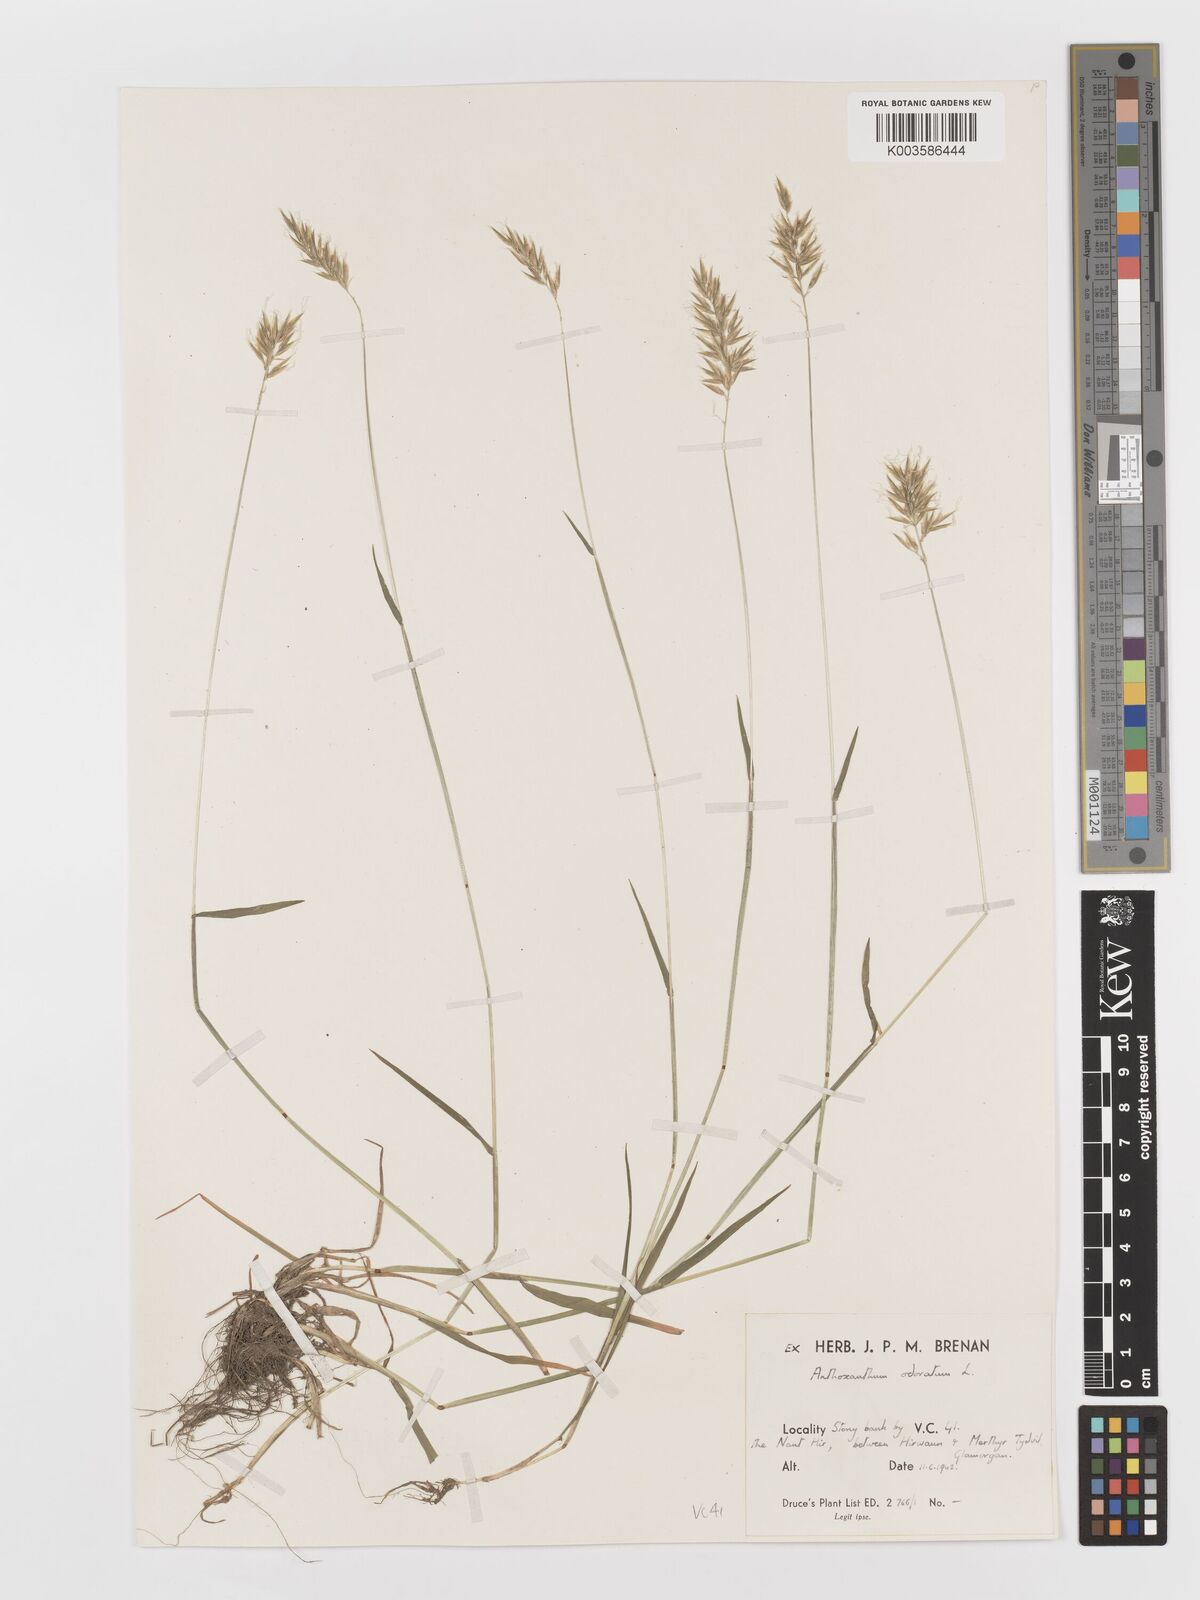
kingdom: Plantae
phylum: Tracheophyta
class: Liliopsida
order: Poales
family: Poaceae
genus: Anthoxanthum
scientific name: Anthoxanthum odoratum
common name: Sweet vernalgrass
